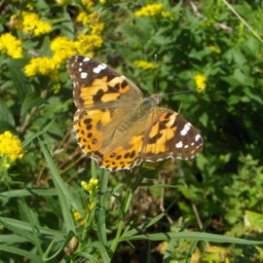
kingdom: Animalia
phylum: Arthropoda
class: Insecta
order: Lepidoptera
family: Nymphalidae
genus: Vanessa
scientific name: Vanessa cardui
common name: Painted Lady
